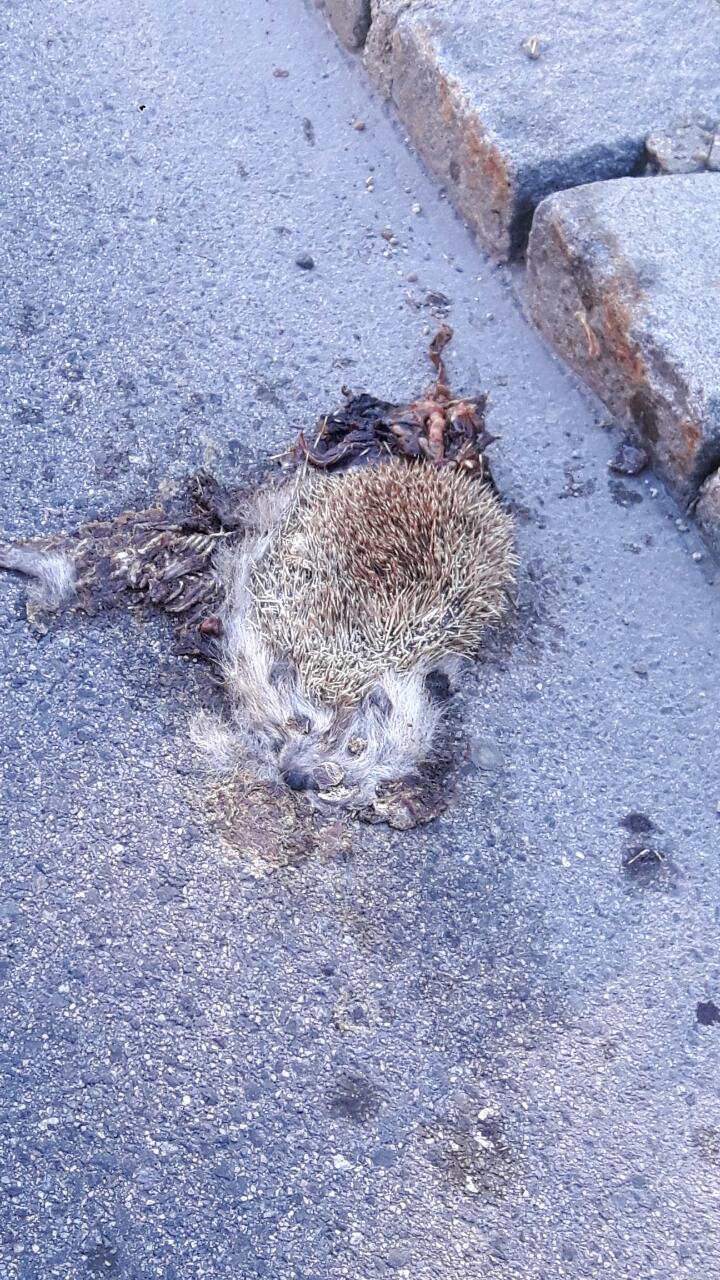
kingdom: Animalia
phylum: Chordata
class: Mammalia
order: Erinaceomorpha
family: Erinaceidae
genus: Erinaceus
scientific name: Erinaceus
